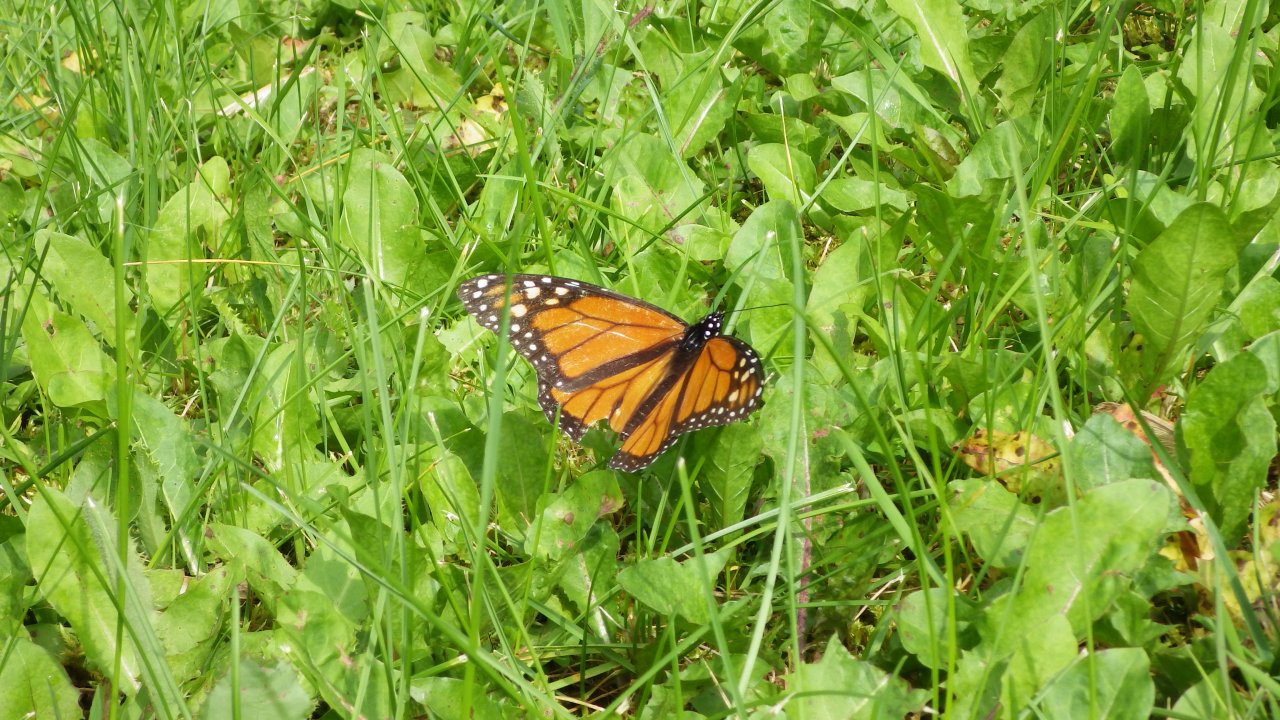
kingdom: Animalia
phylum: Arthropoda
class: Insecta
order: Lepidoptera
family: Nymphalidae
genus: Danaus
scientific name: Danaus plexippus
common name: Monarch
